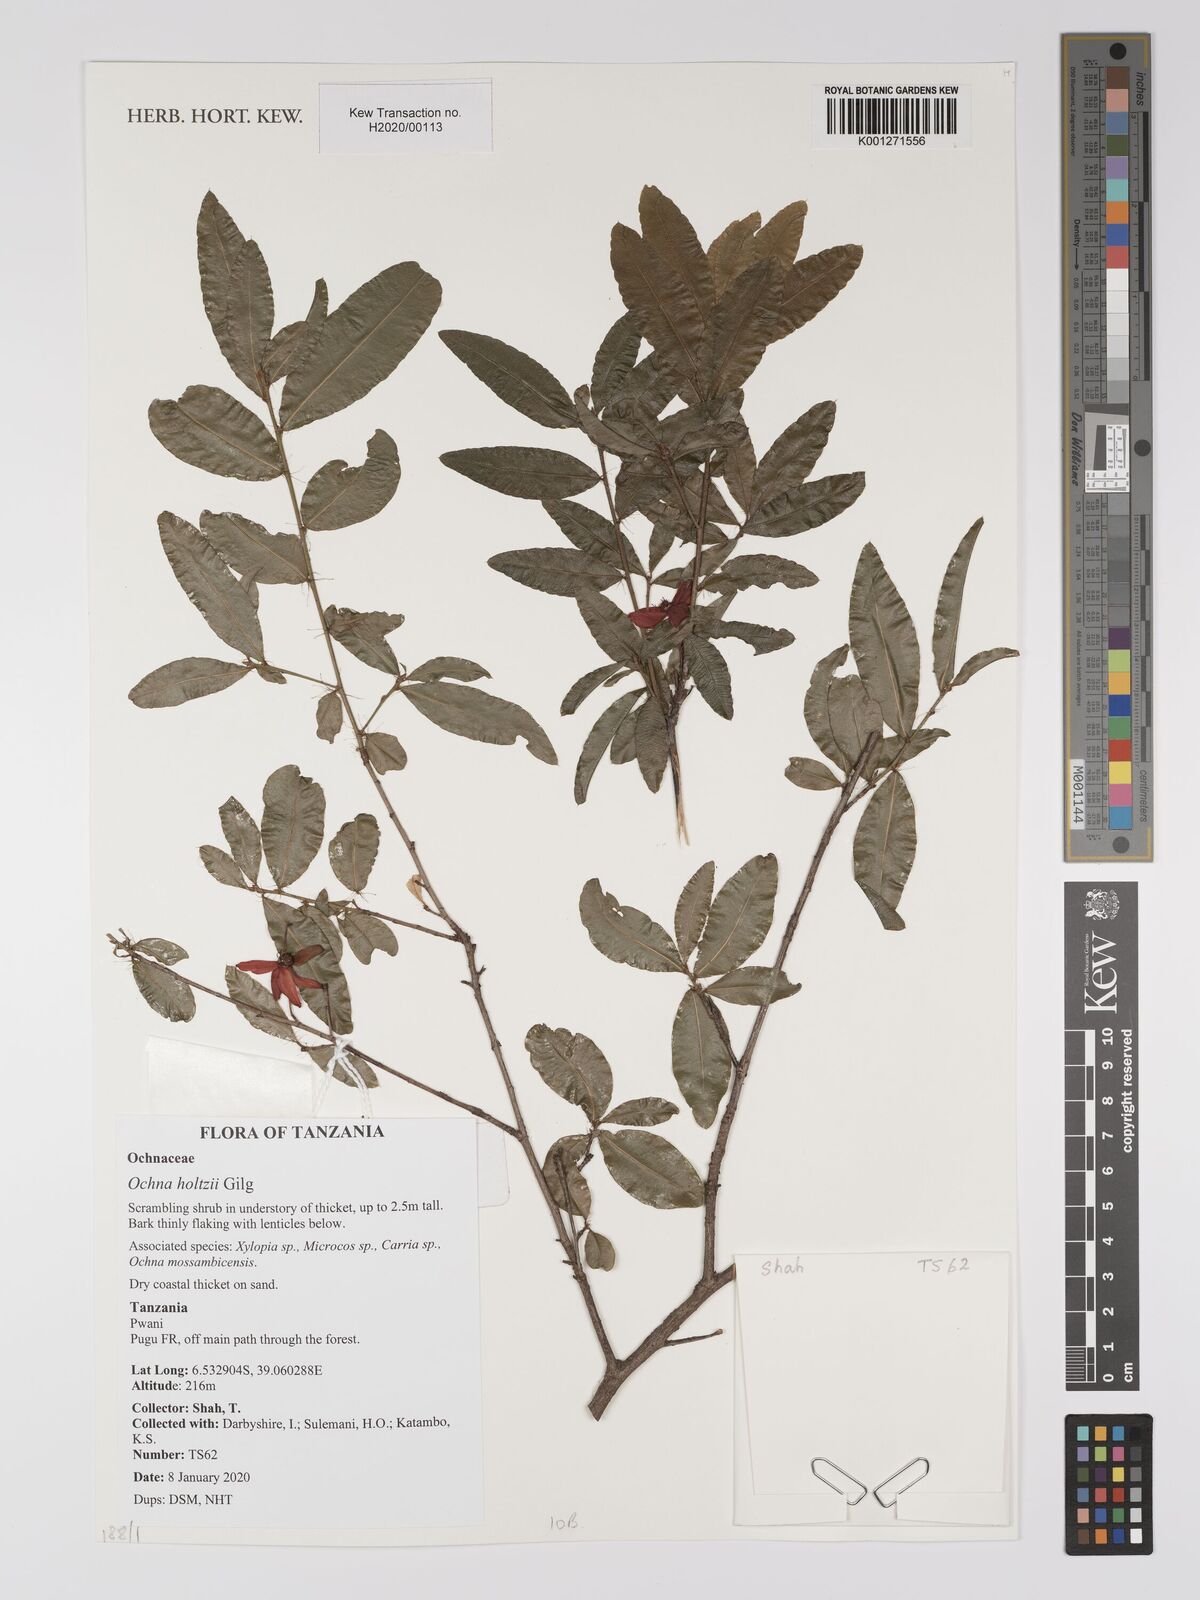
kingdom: Plantae
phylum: Tracheophyta
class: Magnoliopsida
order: Malpighiales
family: Ochnaceae
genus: Ochna
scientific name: Ochna holtzii
